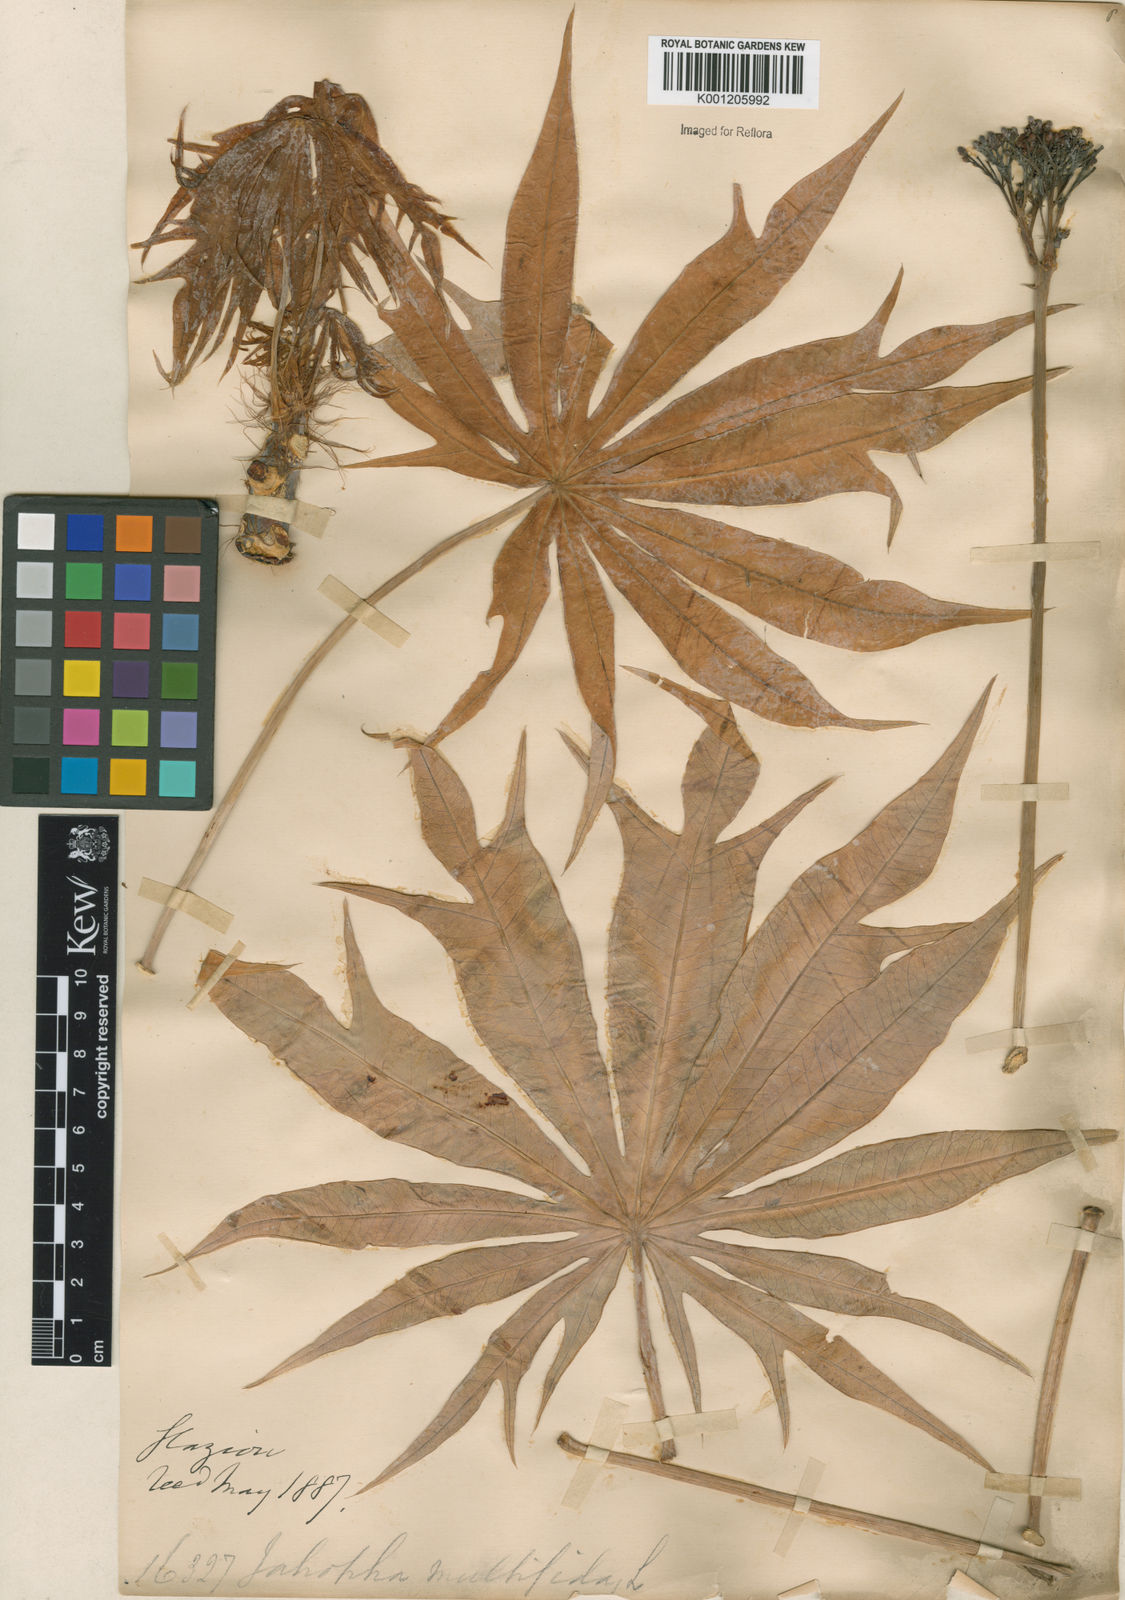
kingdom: Plantae
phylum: Tracheophyta
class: Magnoliopsida
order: Malpighiales
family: Euphorbiaceae
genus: Jatropha
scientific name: Jatropha multifida
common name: Coralbush
